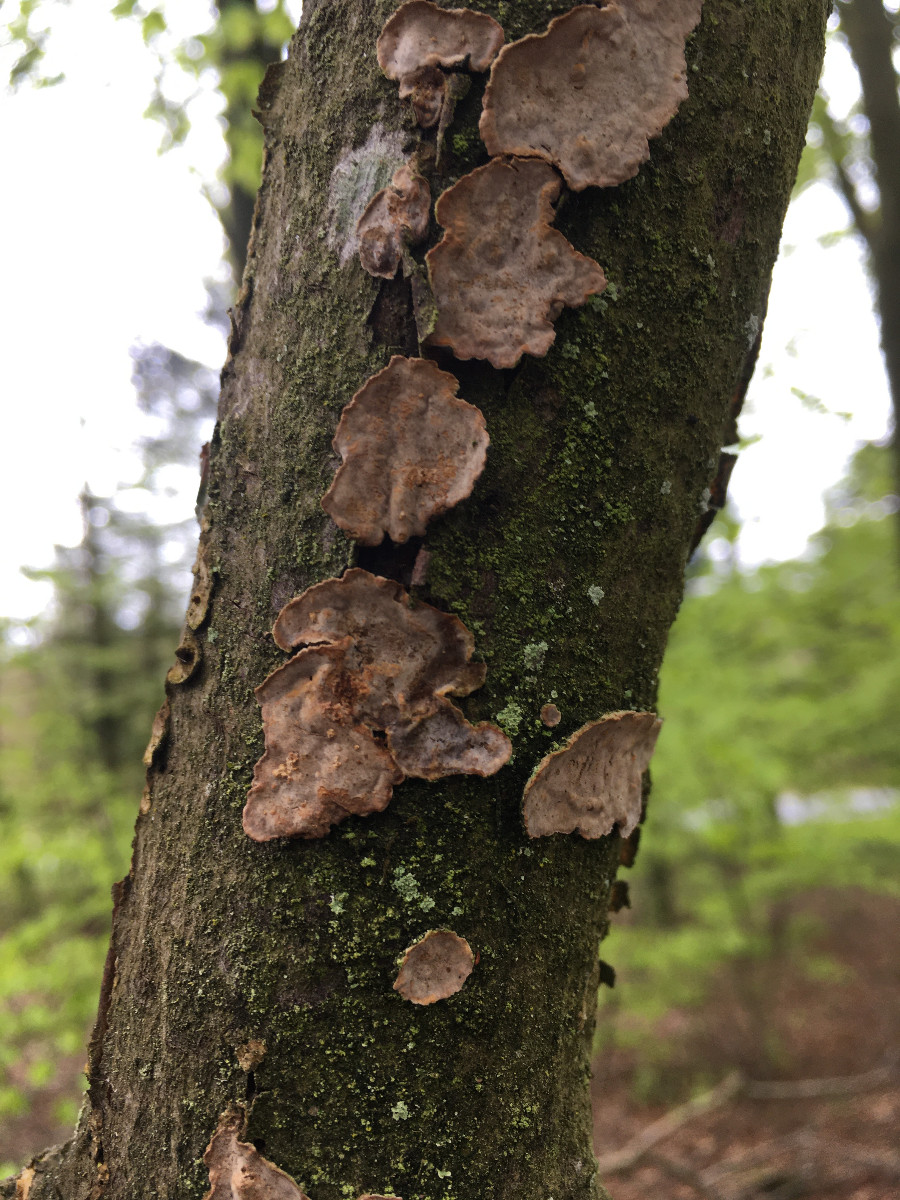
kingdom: Fungi
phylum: Basidiomycota
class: Agaricomycetes
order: Russulales
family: Stereaceae
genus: Stereum
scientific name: Stereum rugosum
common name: rynket lædersvamp
